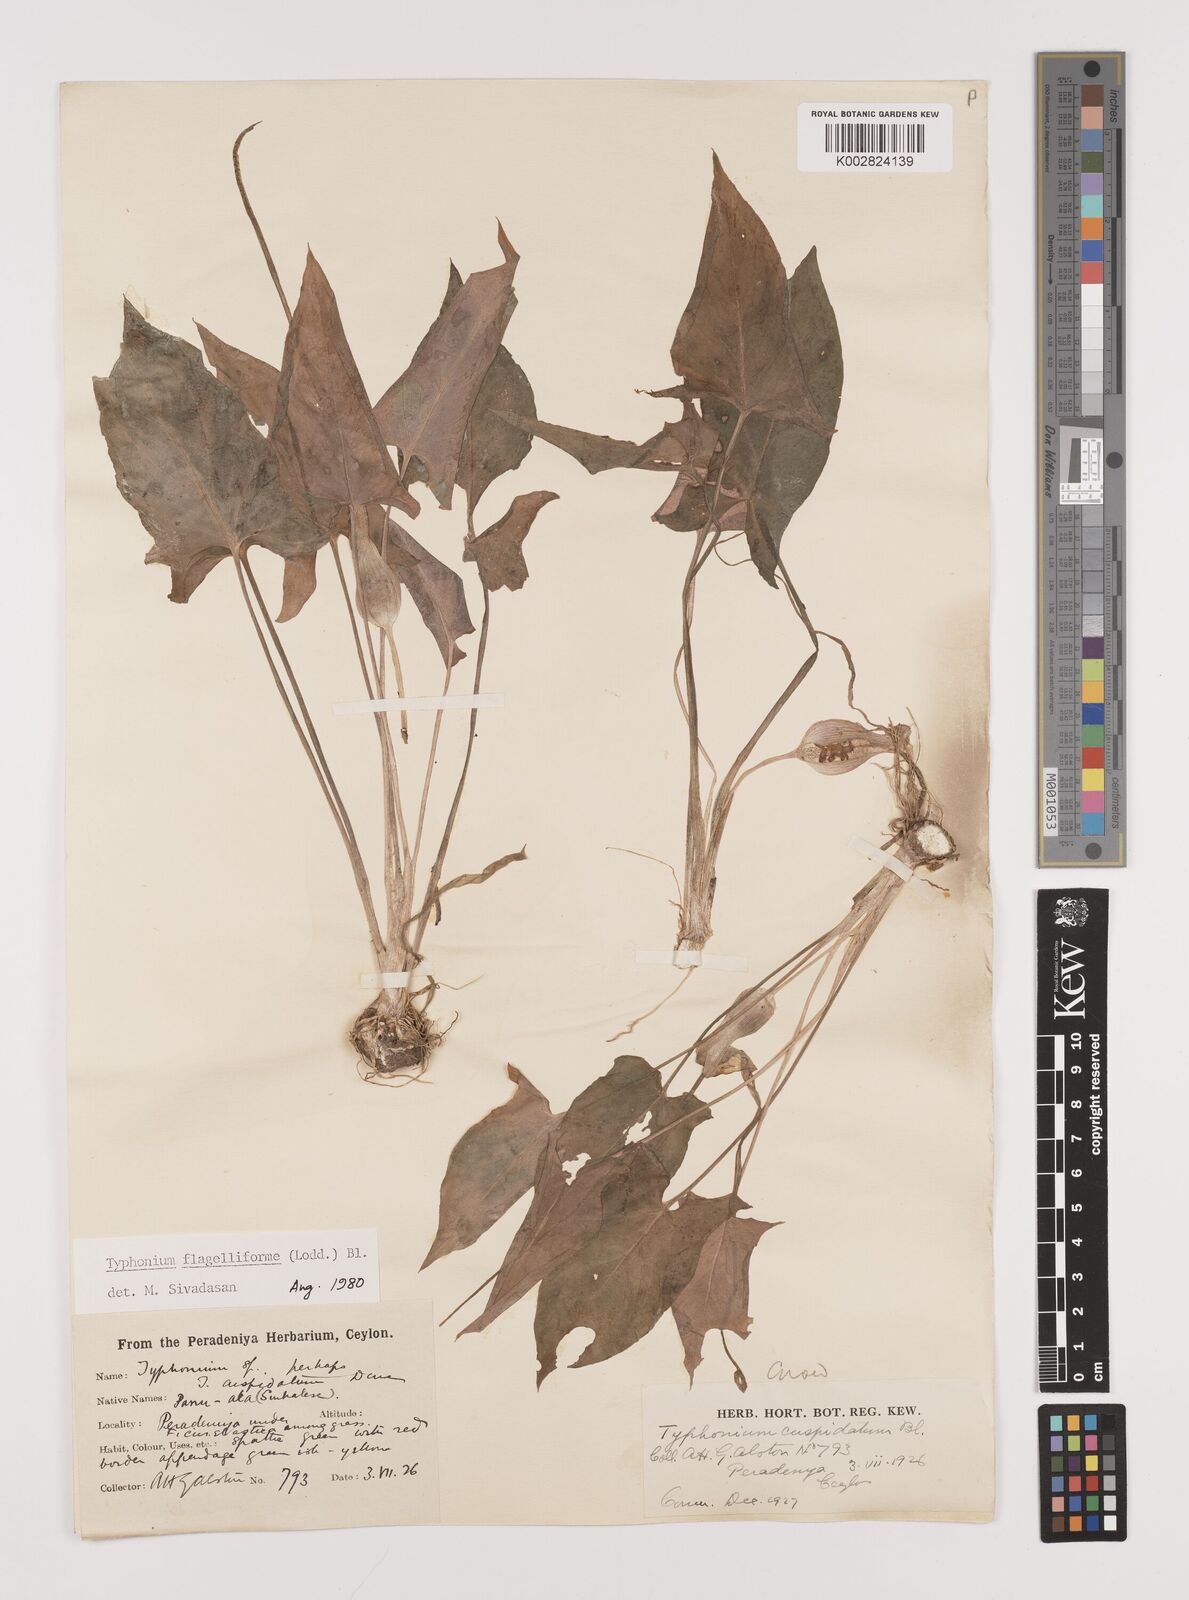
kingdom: Plantae
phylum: Tracheophyta
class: Liliopsida
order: Alismatales
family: Araceae
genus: Typhonium
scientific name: Typhonium flagelliforme
